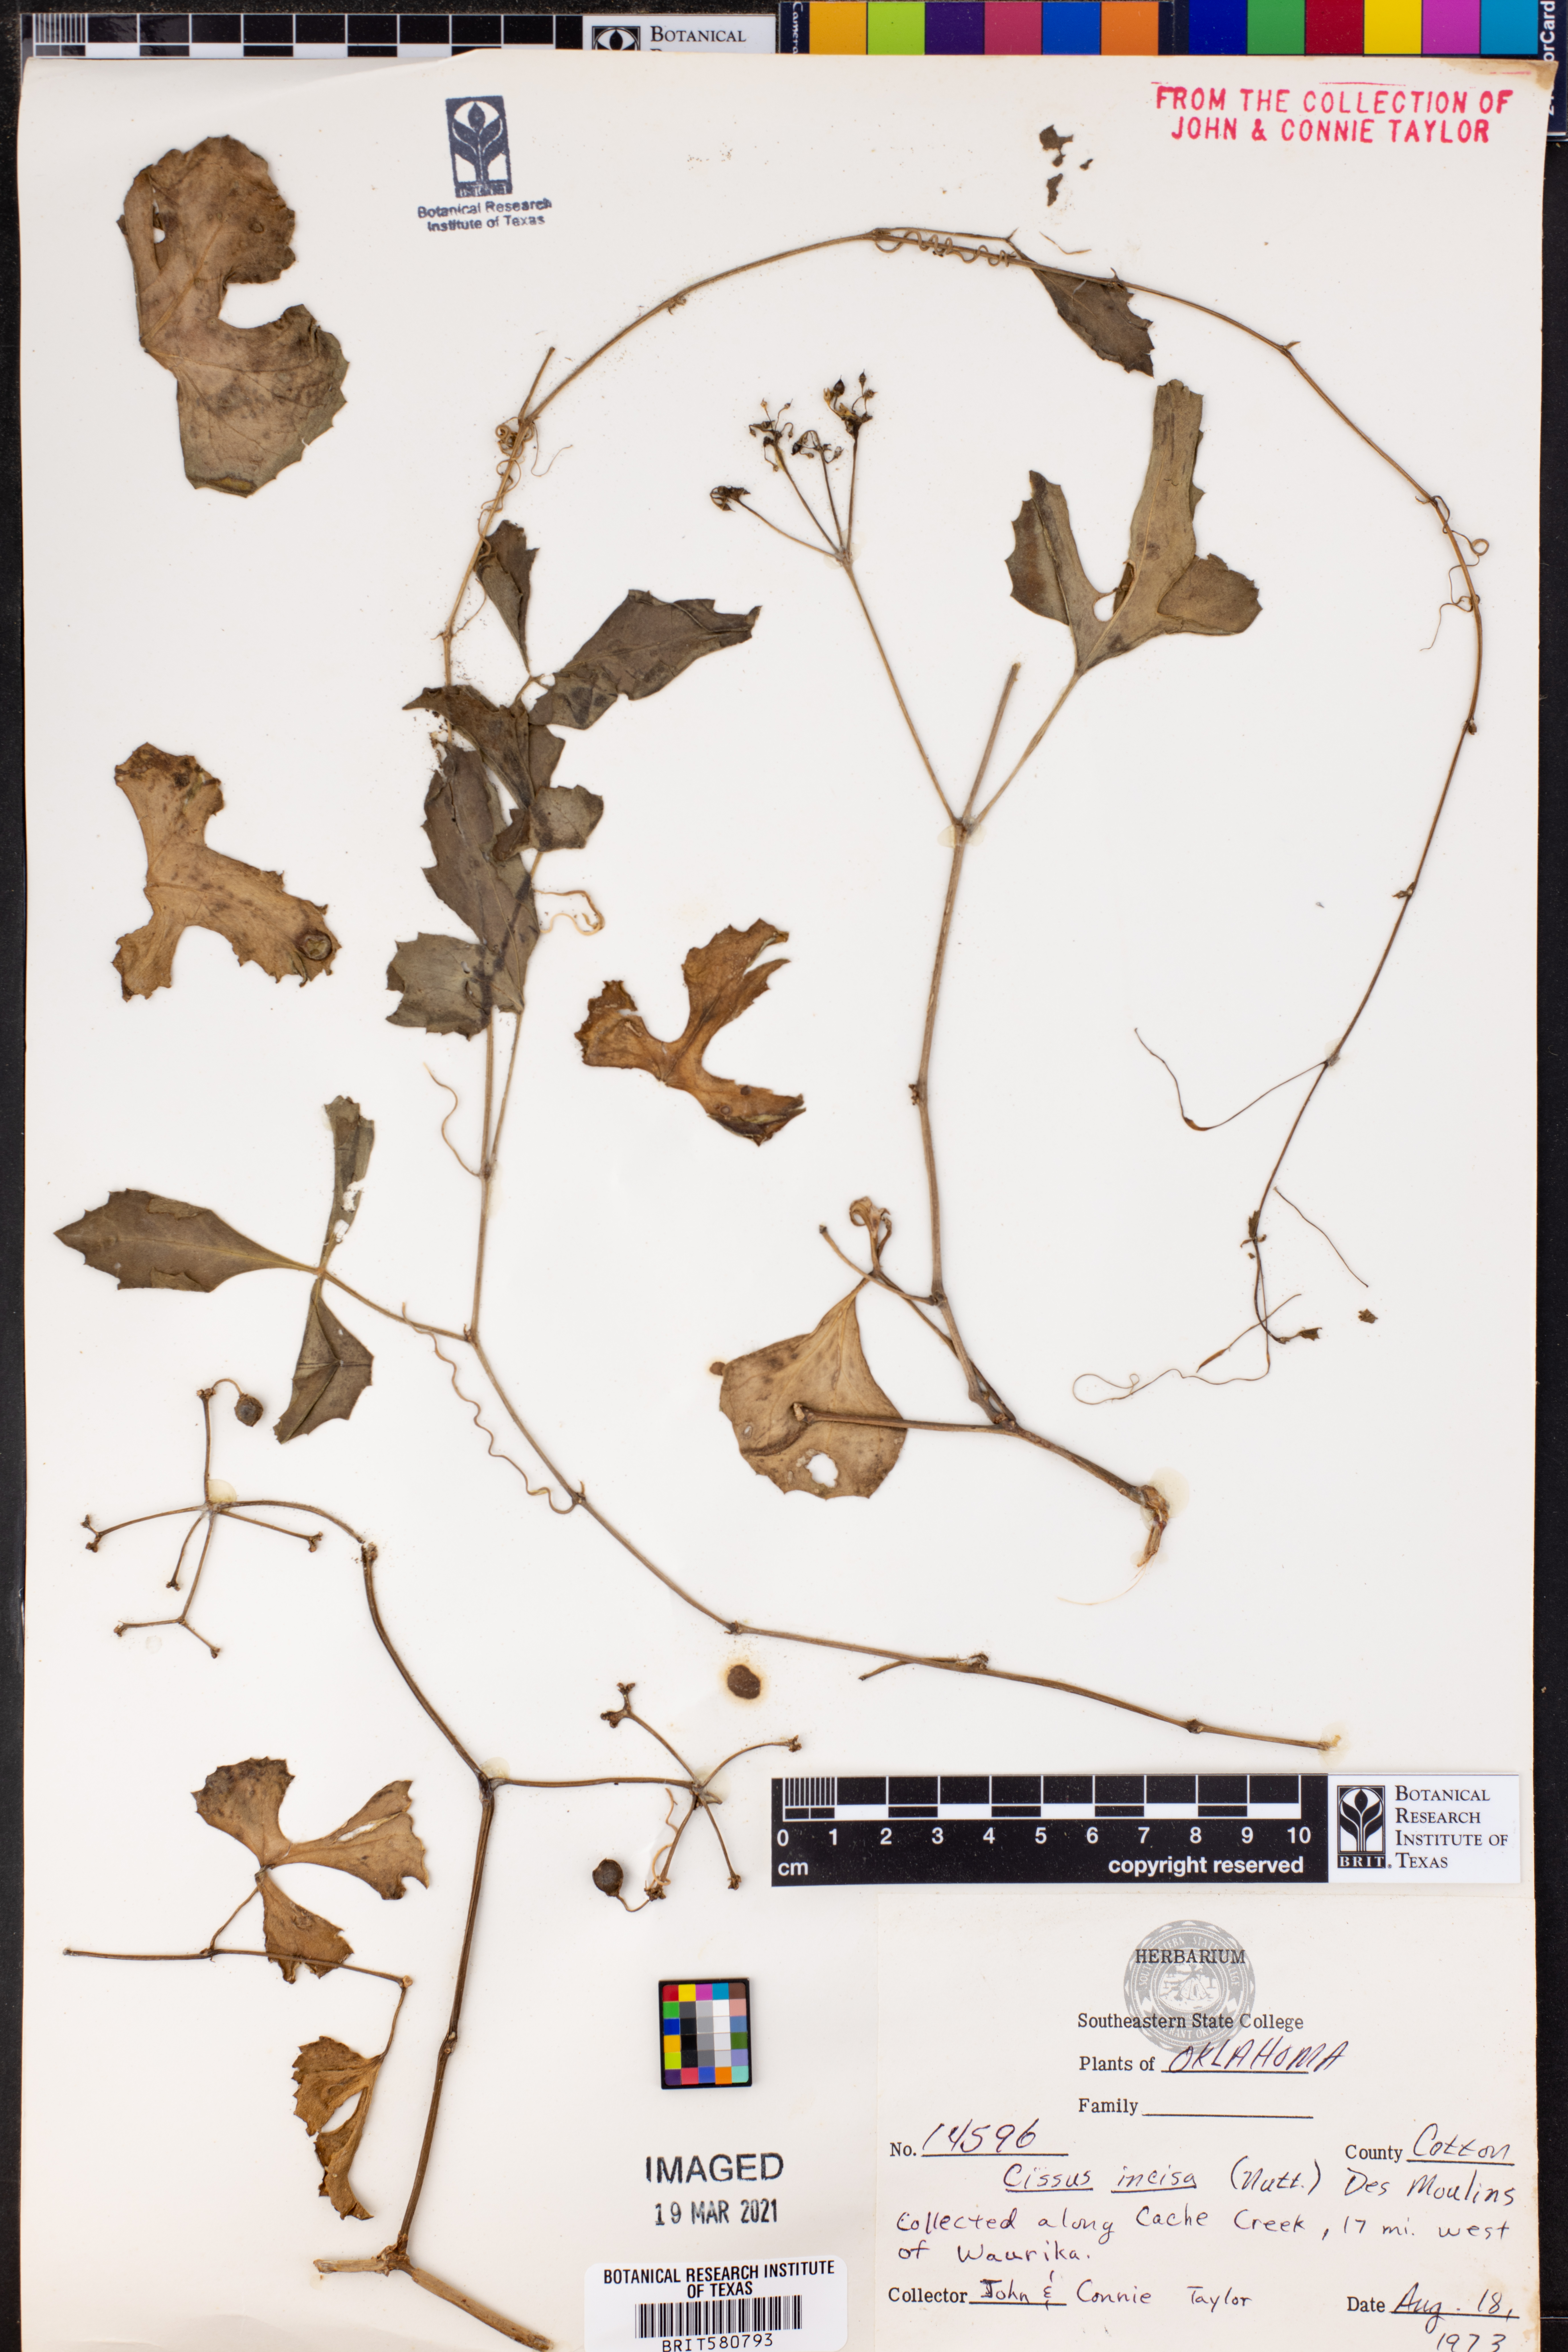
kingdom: Plantae
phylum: Tracheophyta
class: Magnoliopsida
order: Vitales
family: Vitaceae
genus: Cissus
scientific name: Cissus trifoliata
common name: Vine-sorrel
